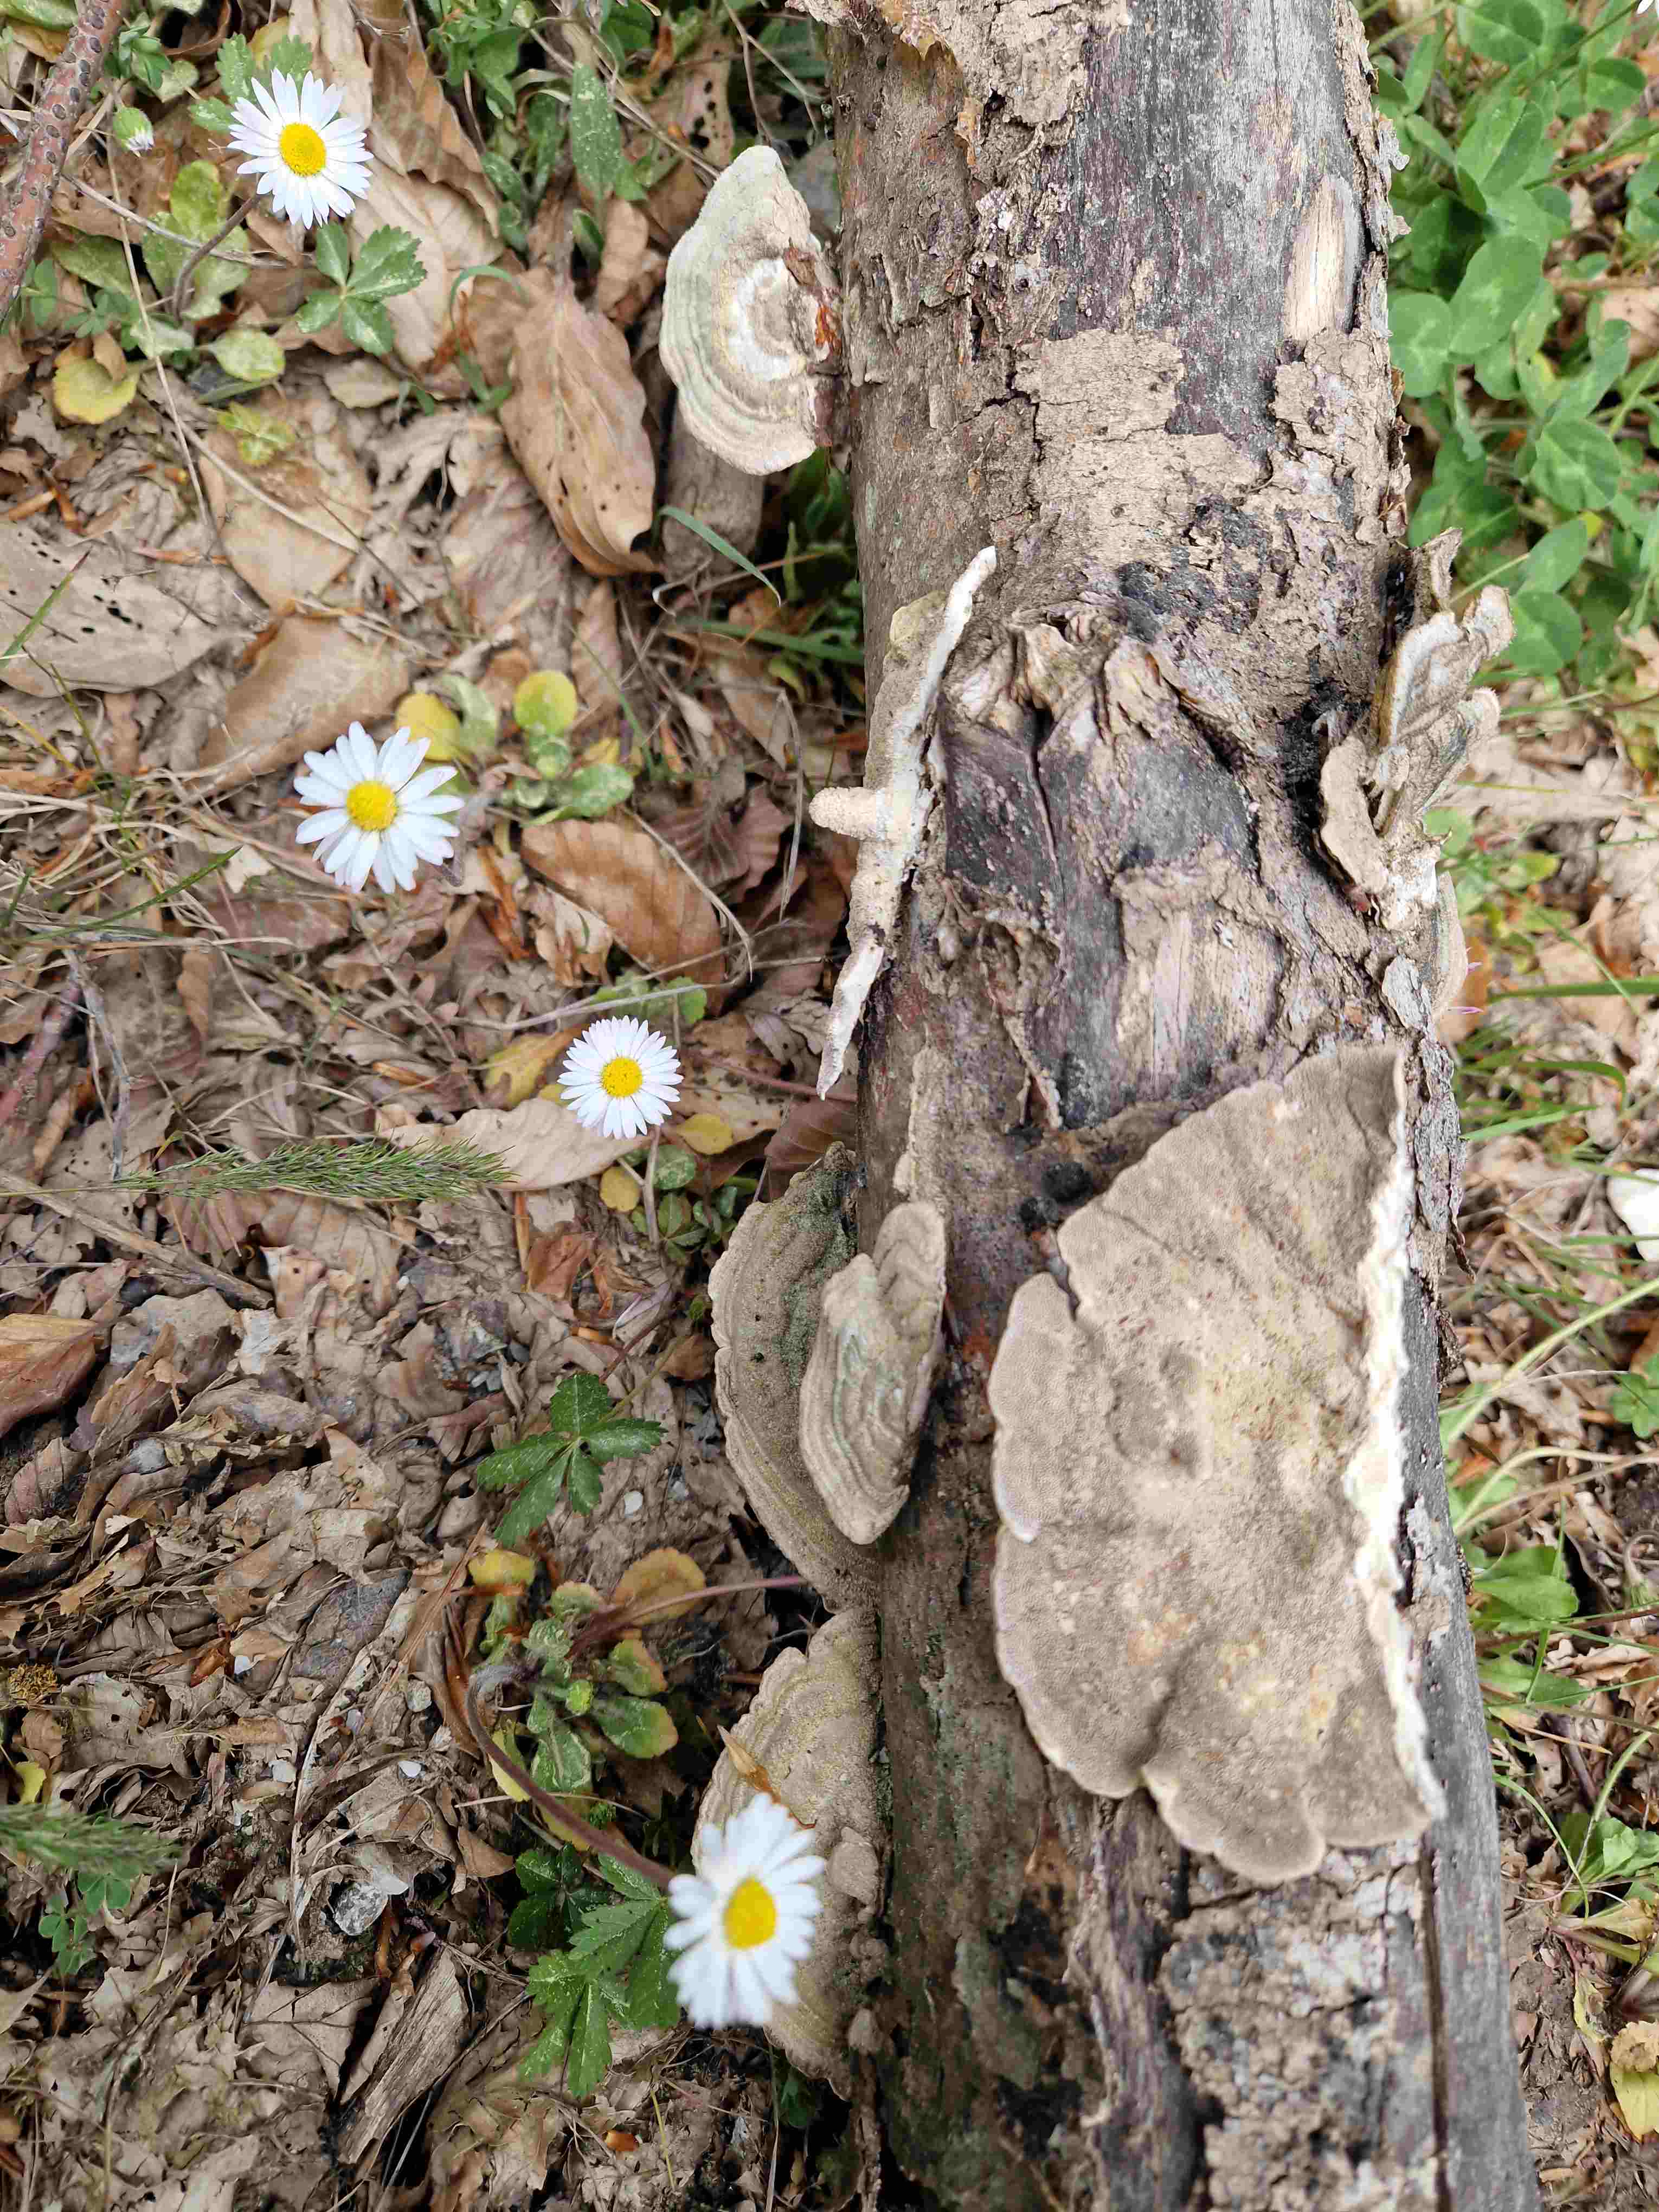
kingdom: Fungi
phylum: Basidiomycota
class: Agaricomycetes
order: Polyporales
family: Polyporaceae
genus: Trametes
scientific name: Trametes hirsuta
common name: håret læderporesvamp
